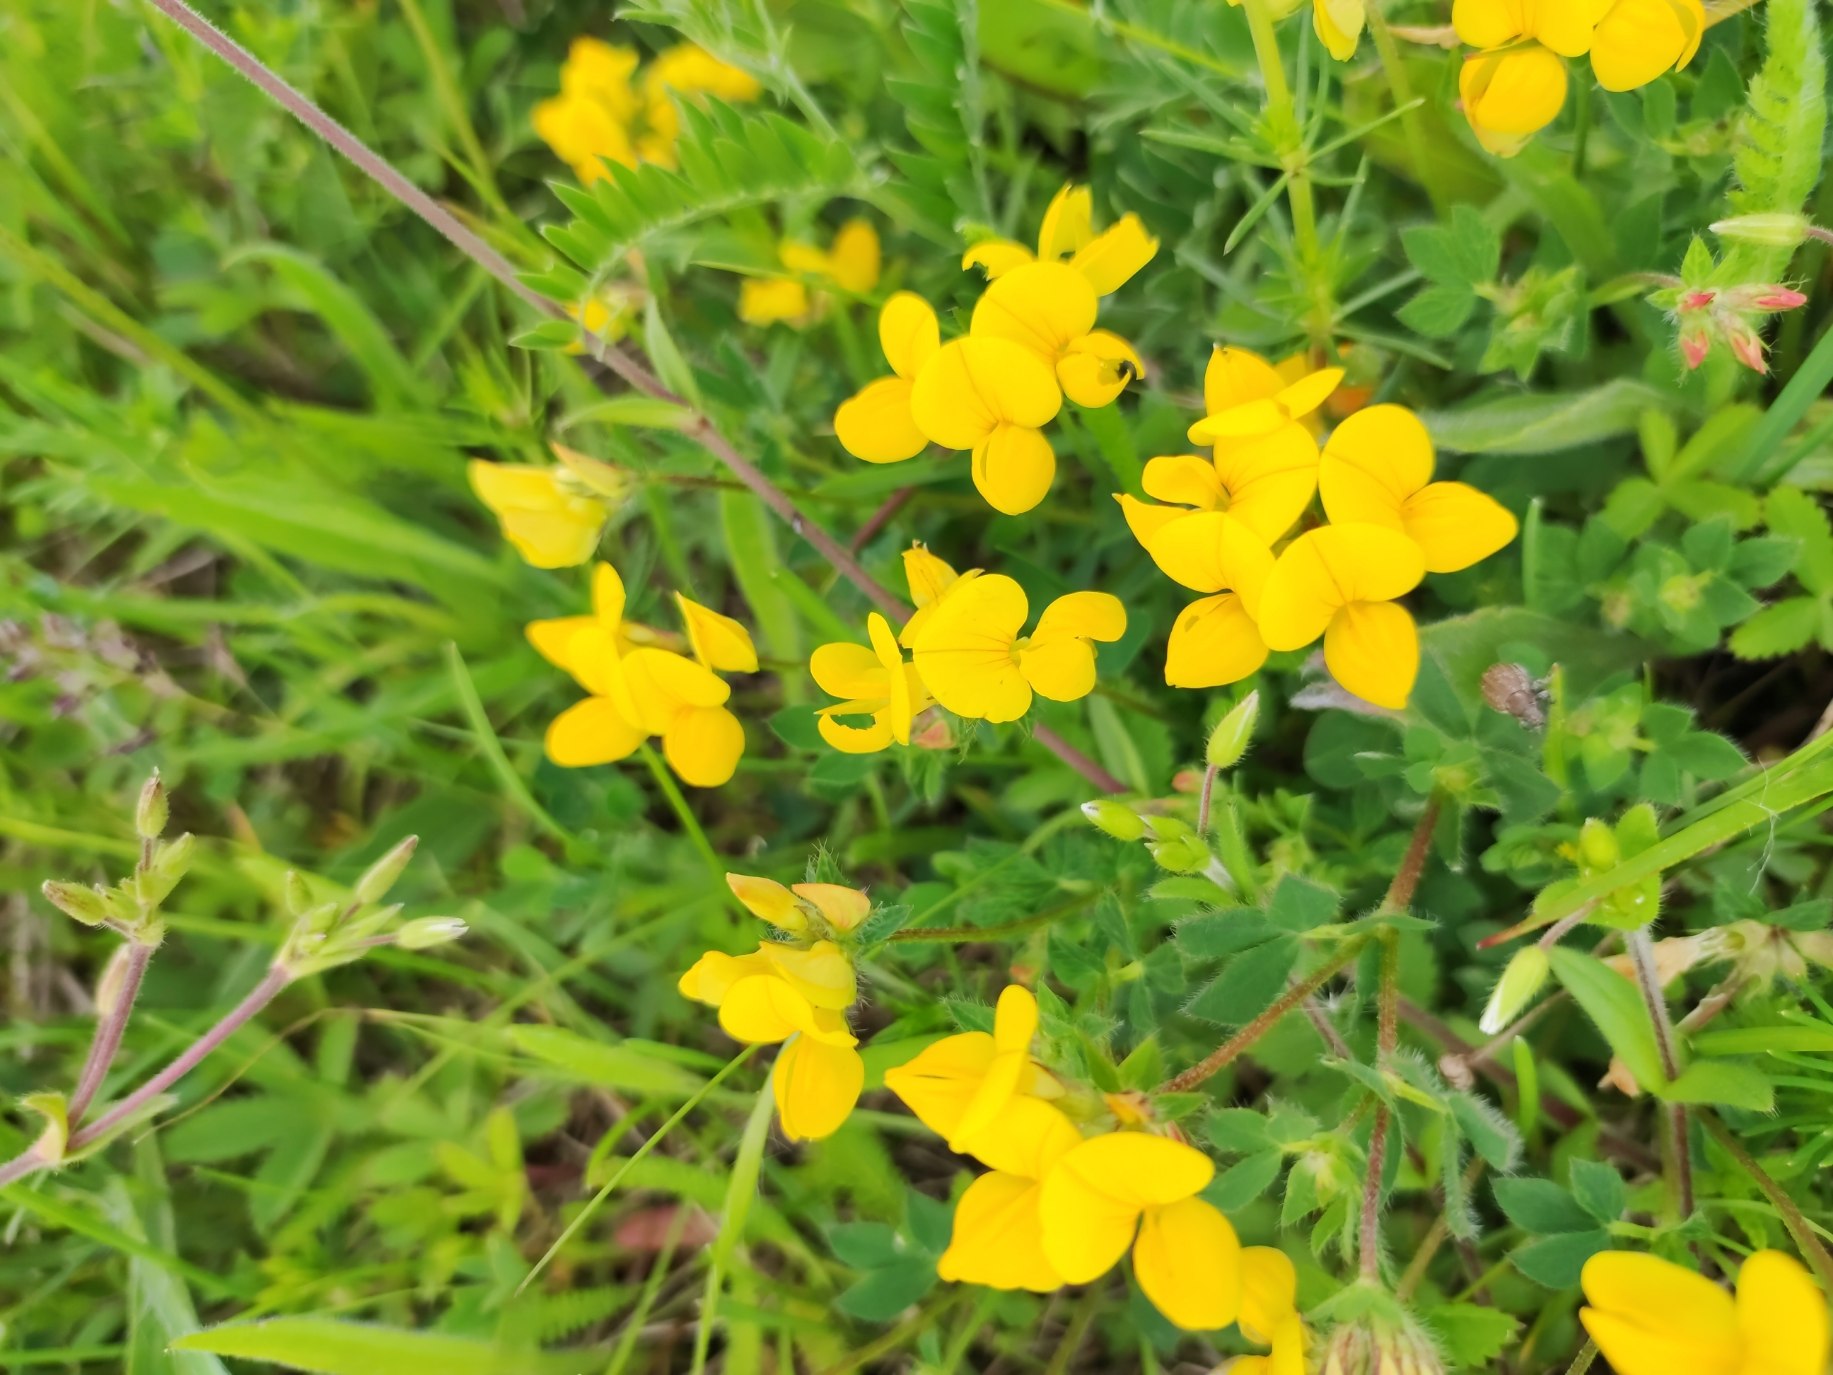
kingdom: Plantae
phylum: Tracheophyta
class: Magnoliopsida
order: Fabales
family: Fabaceae
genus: Lotus
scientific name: Lotus corniculatus
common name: Almindelig kællingetand
